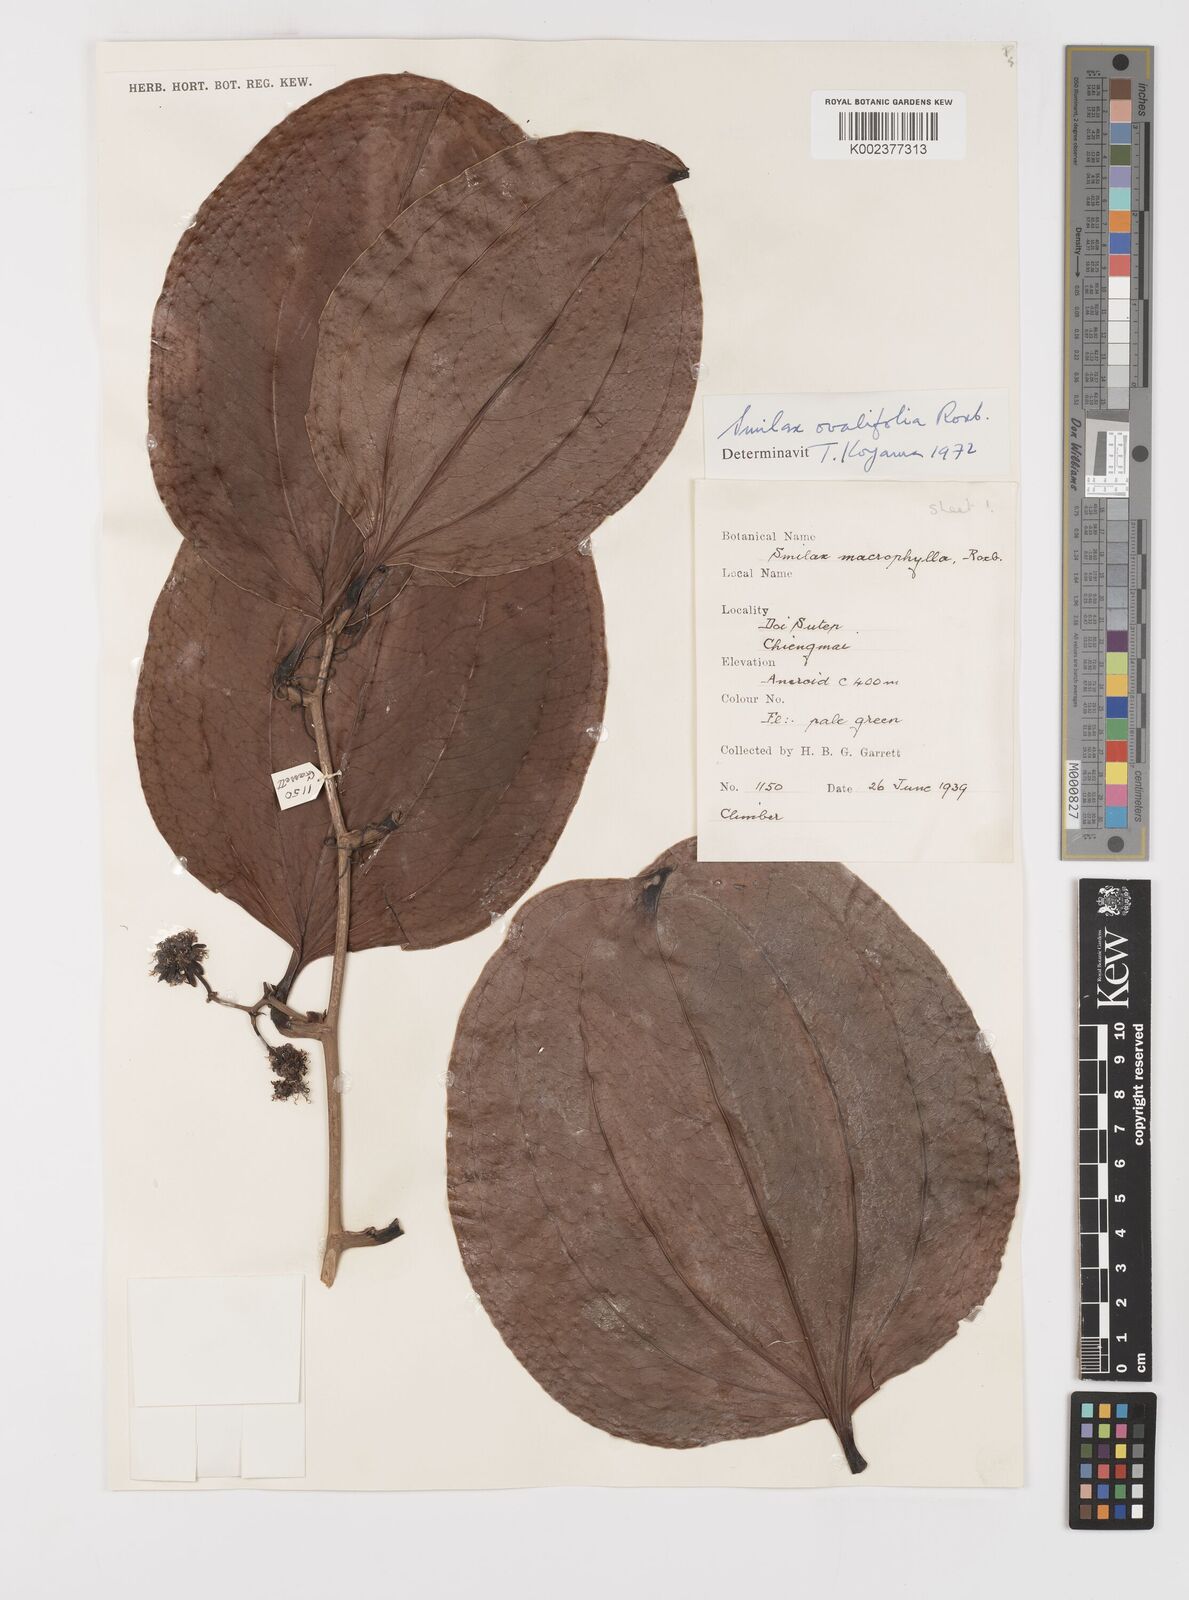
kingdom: Plantae
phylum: Tracheophyta
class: Liliopsida
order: Liliales
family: Smilacaceae
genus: Smilax
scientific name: Smilax ovalifolia
